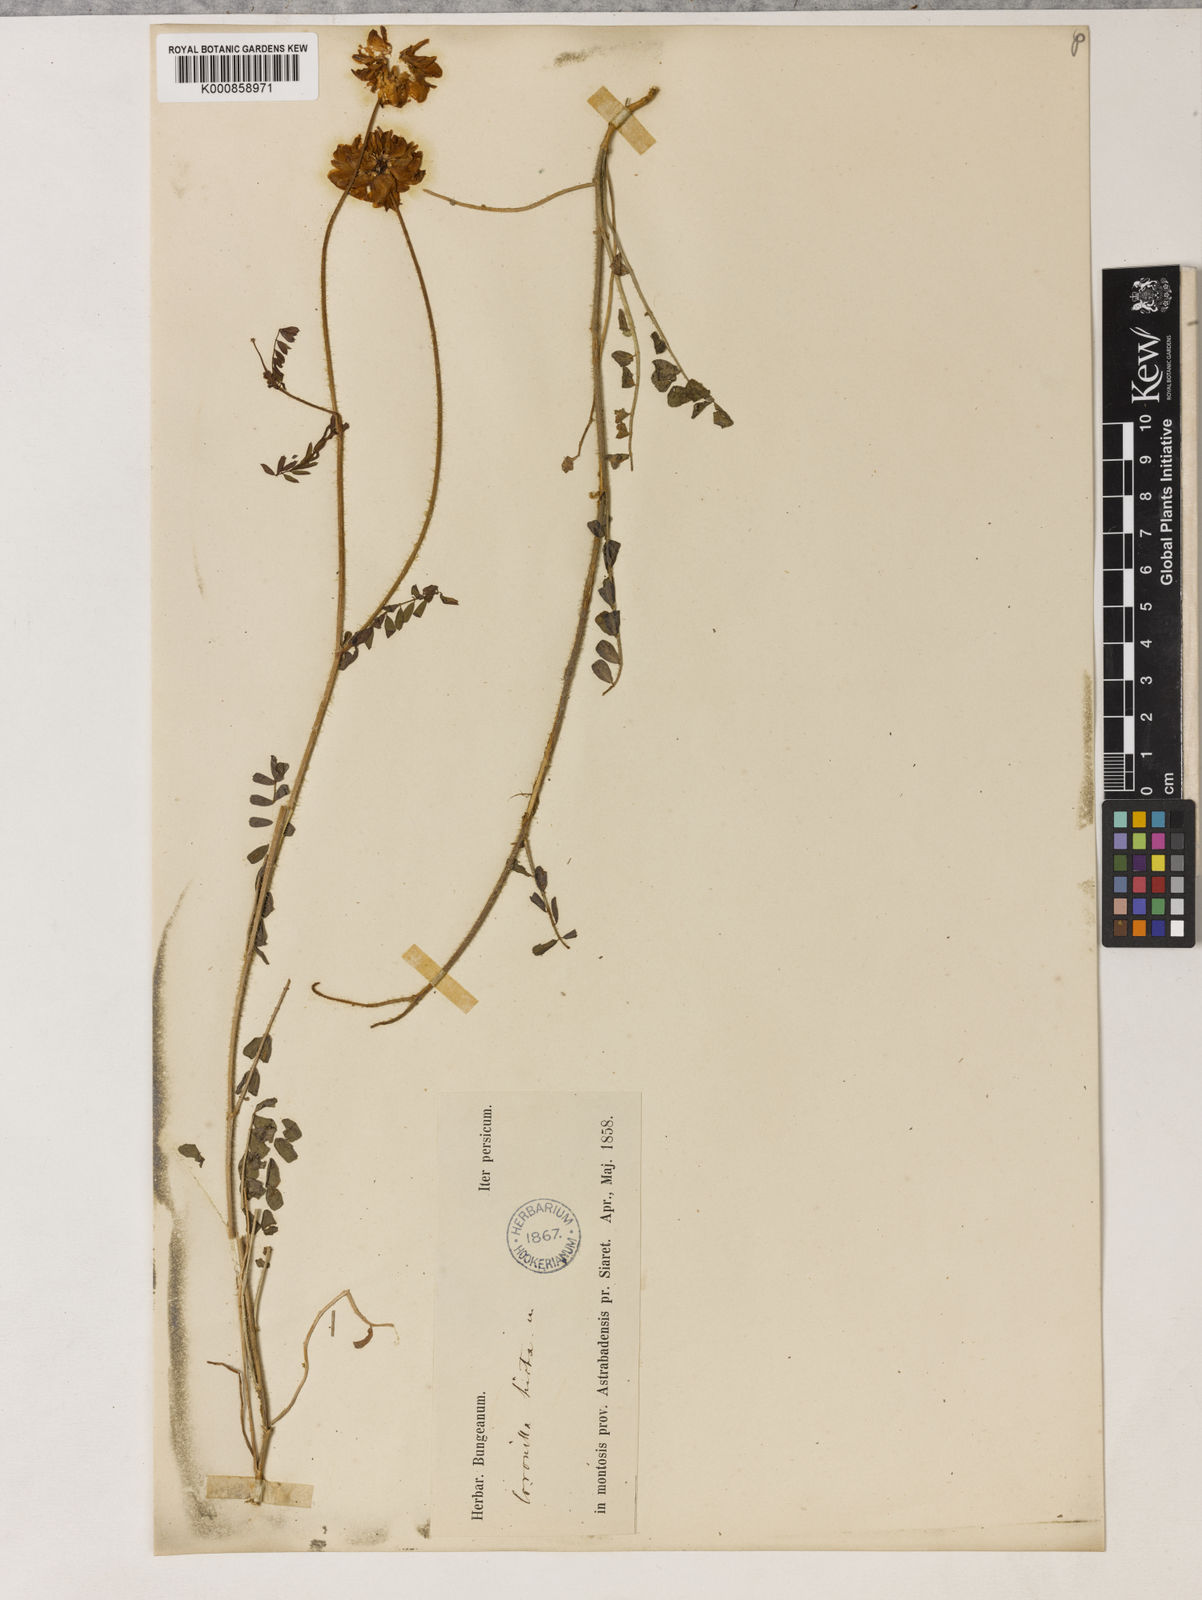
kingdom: Plantae
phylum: Tracheophyta
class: Magnoliopsida
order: Fabales
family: Fabaceae
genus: Coronilla
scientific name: Coronilla varia
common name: Crownvetch
